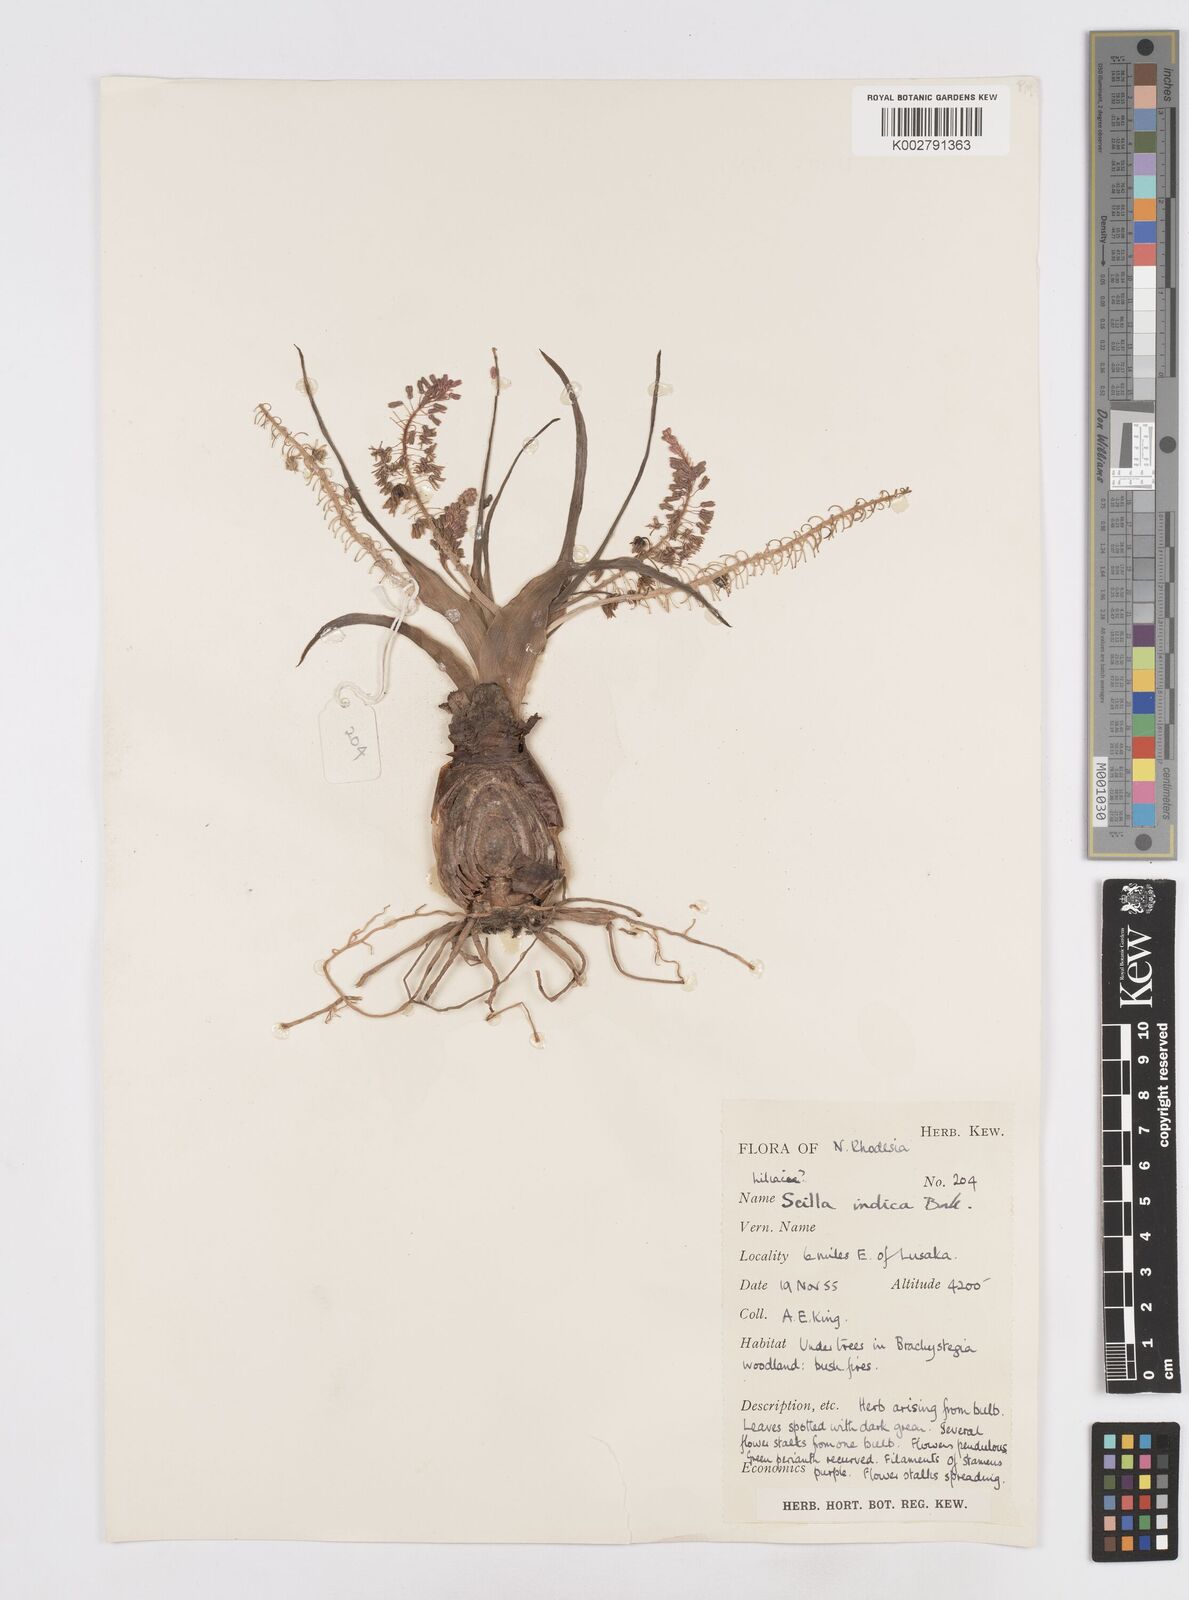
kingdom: Plantae
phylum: Tracheophyta
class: Liliopsida
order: Asparagales
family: Asparagaceae
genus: Ledebouria
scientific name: Ledebouria revoluta
